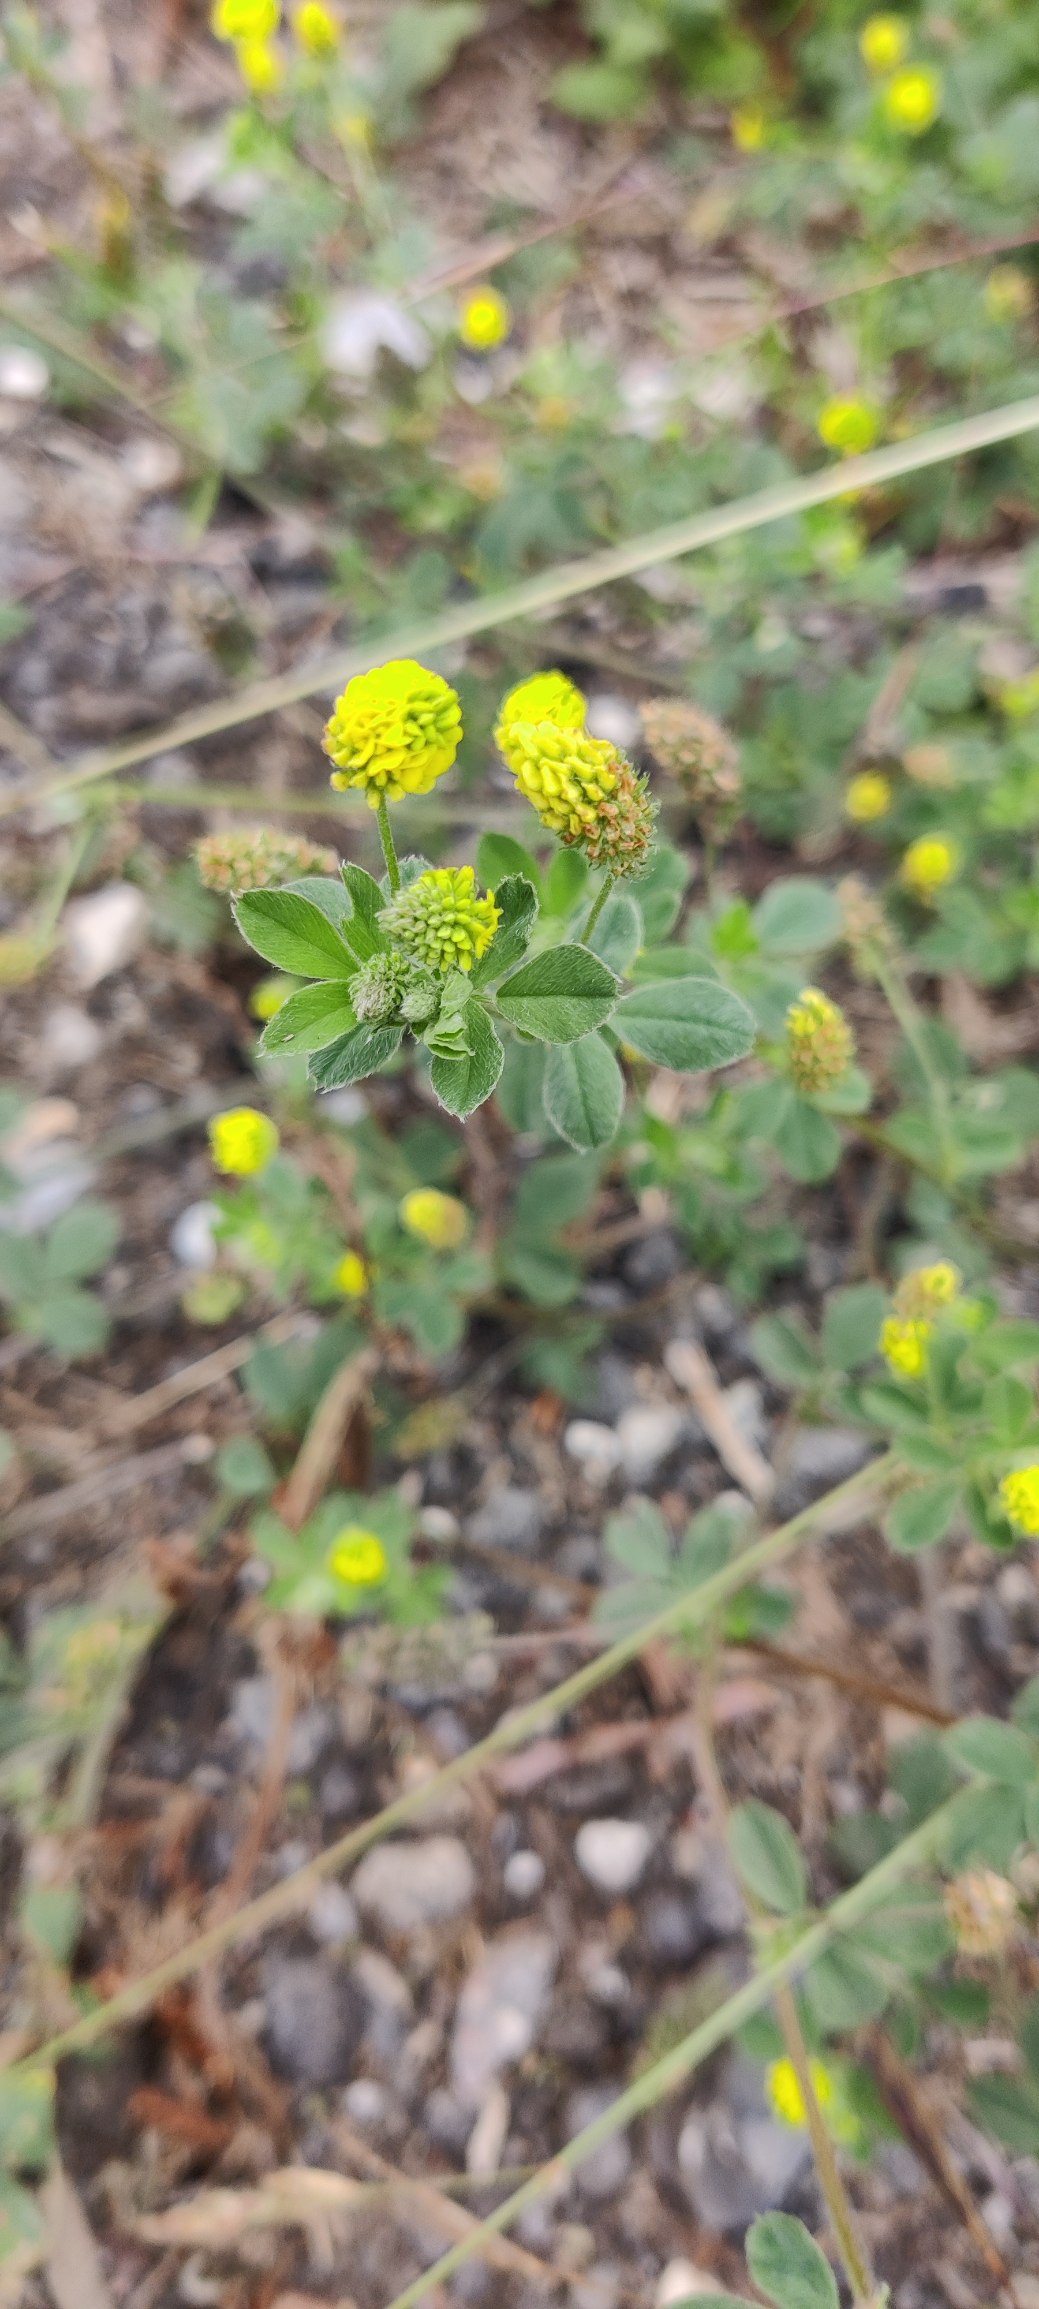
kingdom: Plantae
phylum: Tracheophyta
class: Magnoliopsida
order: Fabales
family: Fabaceae
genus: Medicago
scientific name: Medicago lupulina
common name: Humle-sneglebælg
